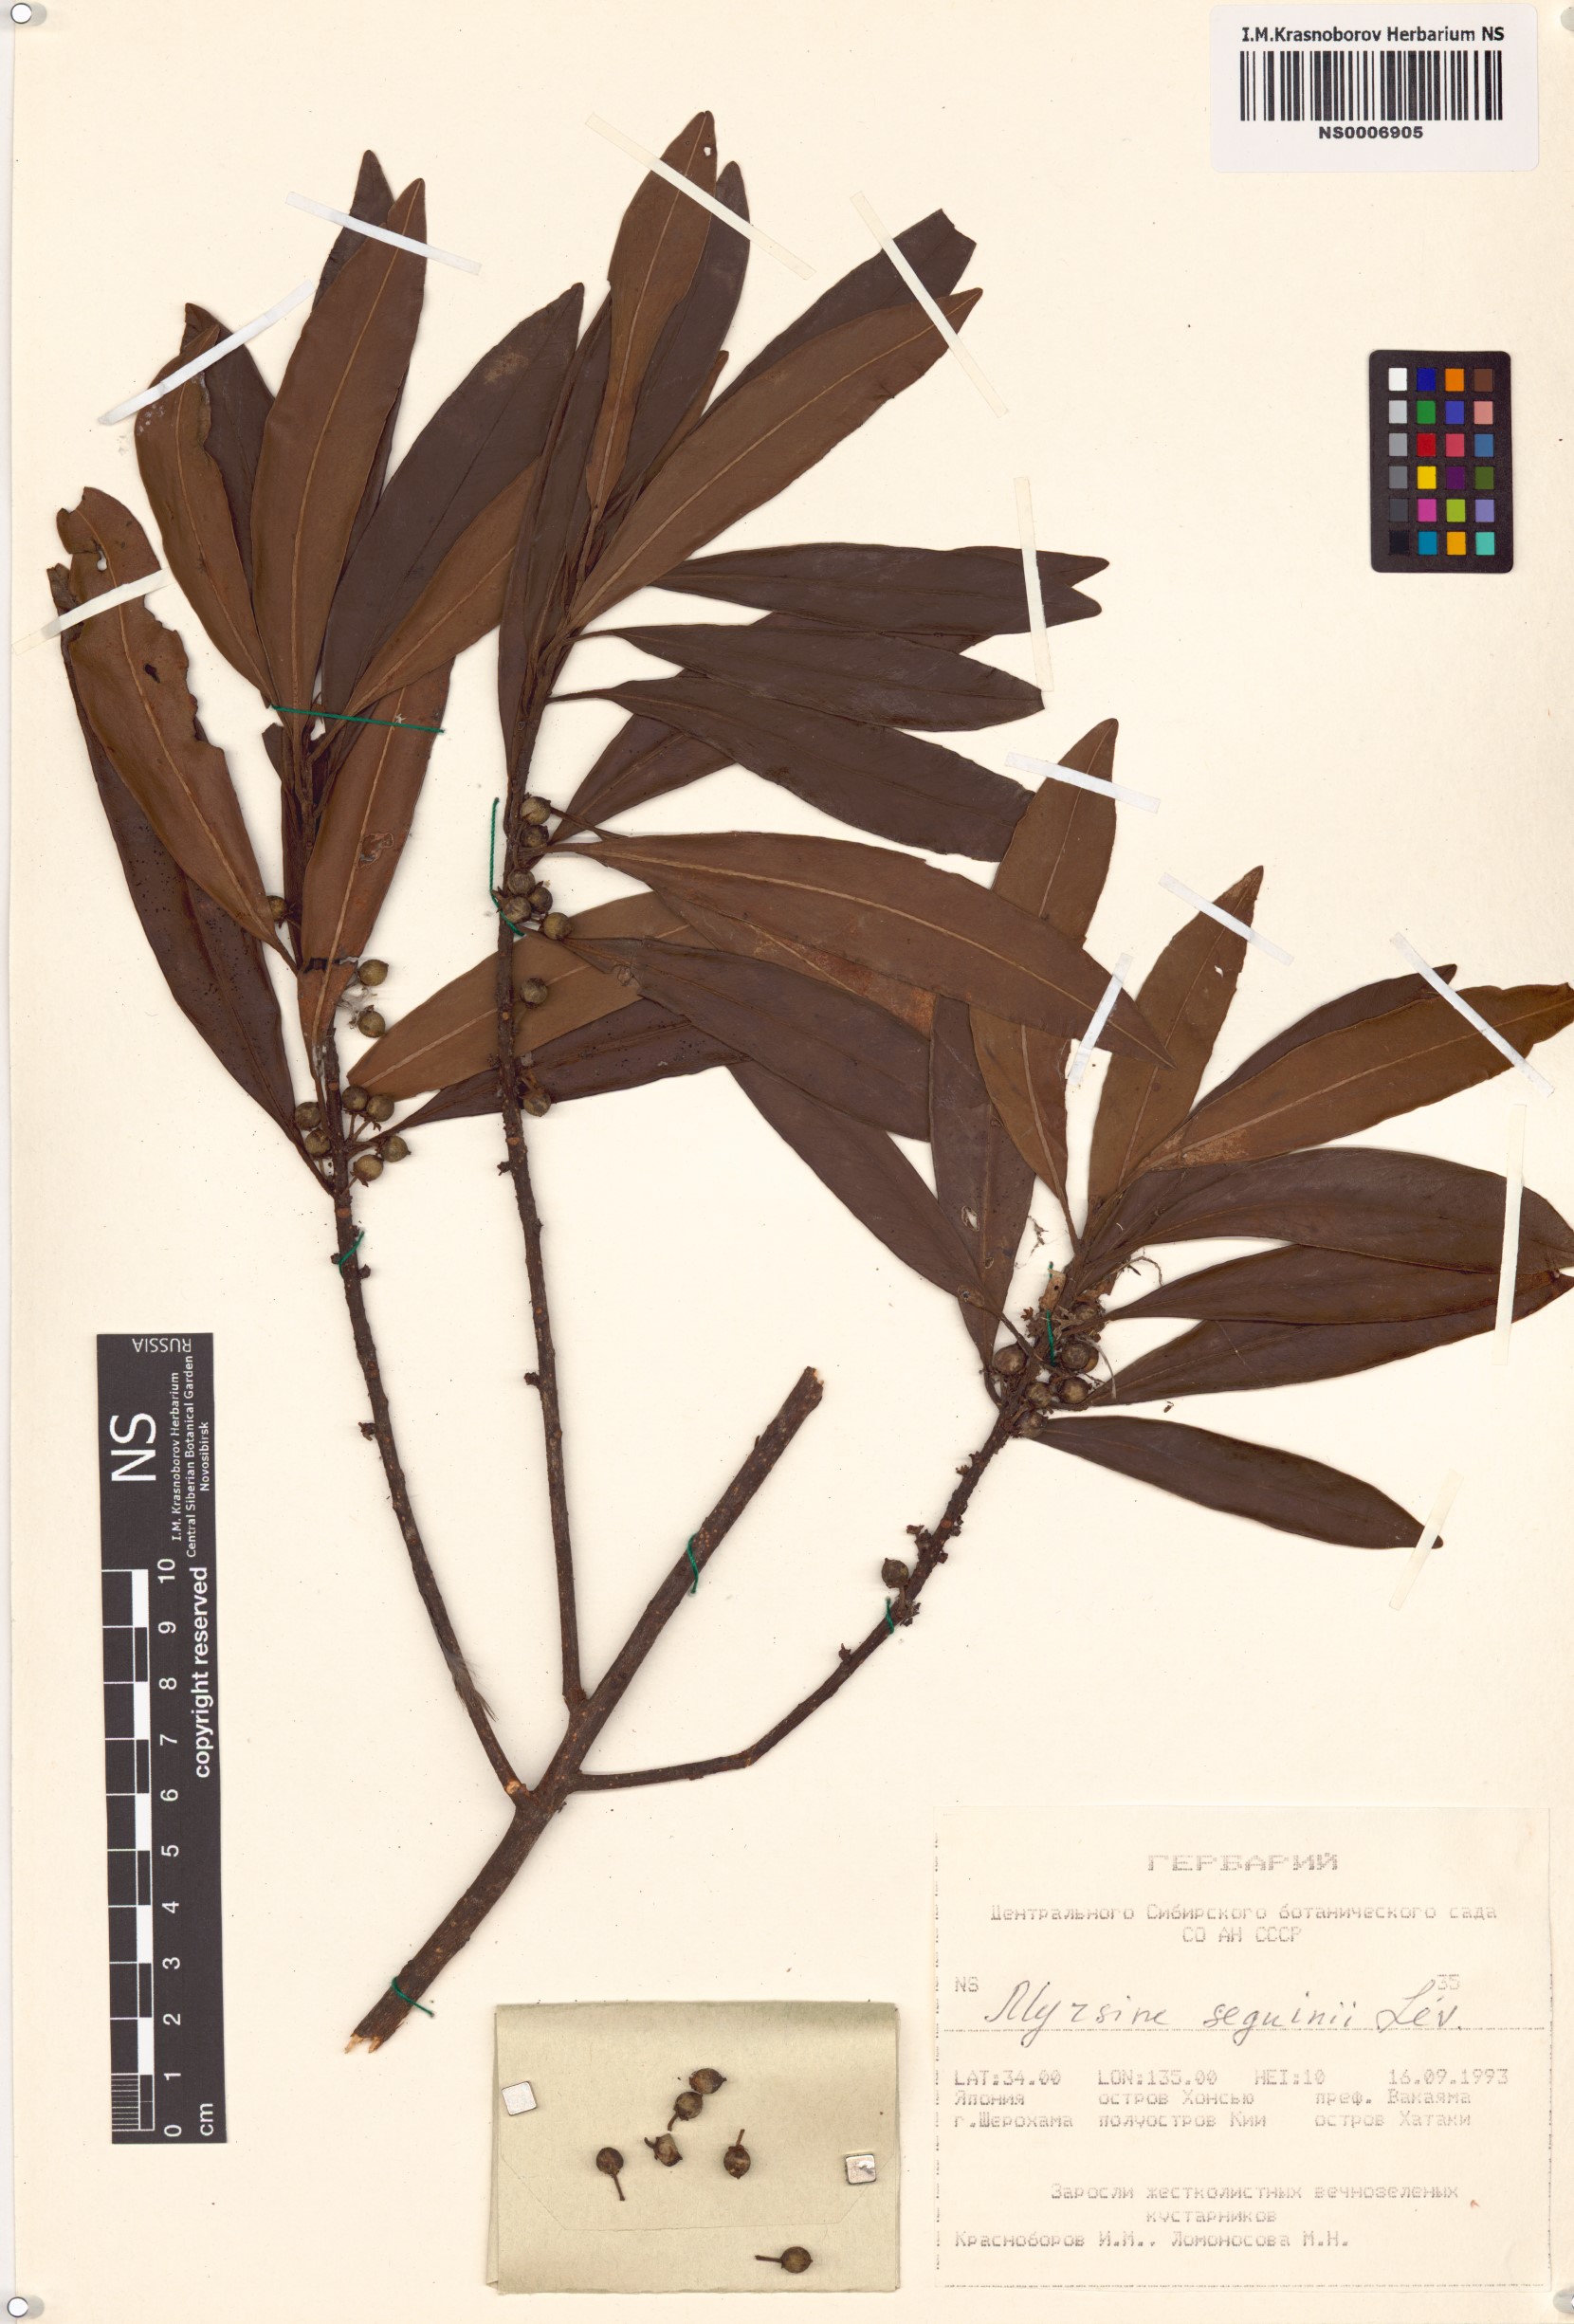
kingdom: Plantae
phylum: Tracheophyta
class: Magnoliopsida
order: Ericales
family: Primulaceae
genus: Myrsine
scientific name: Myrsine seguinii
